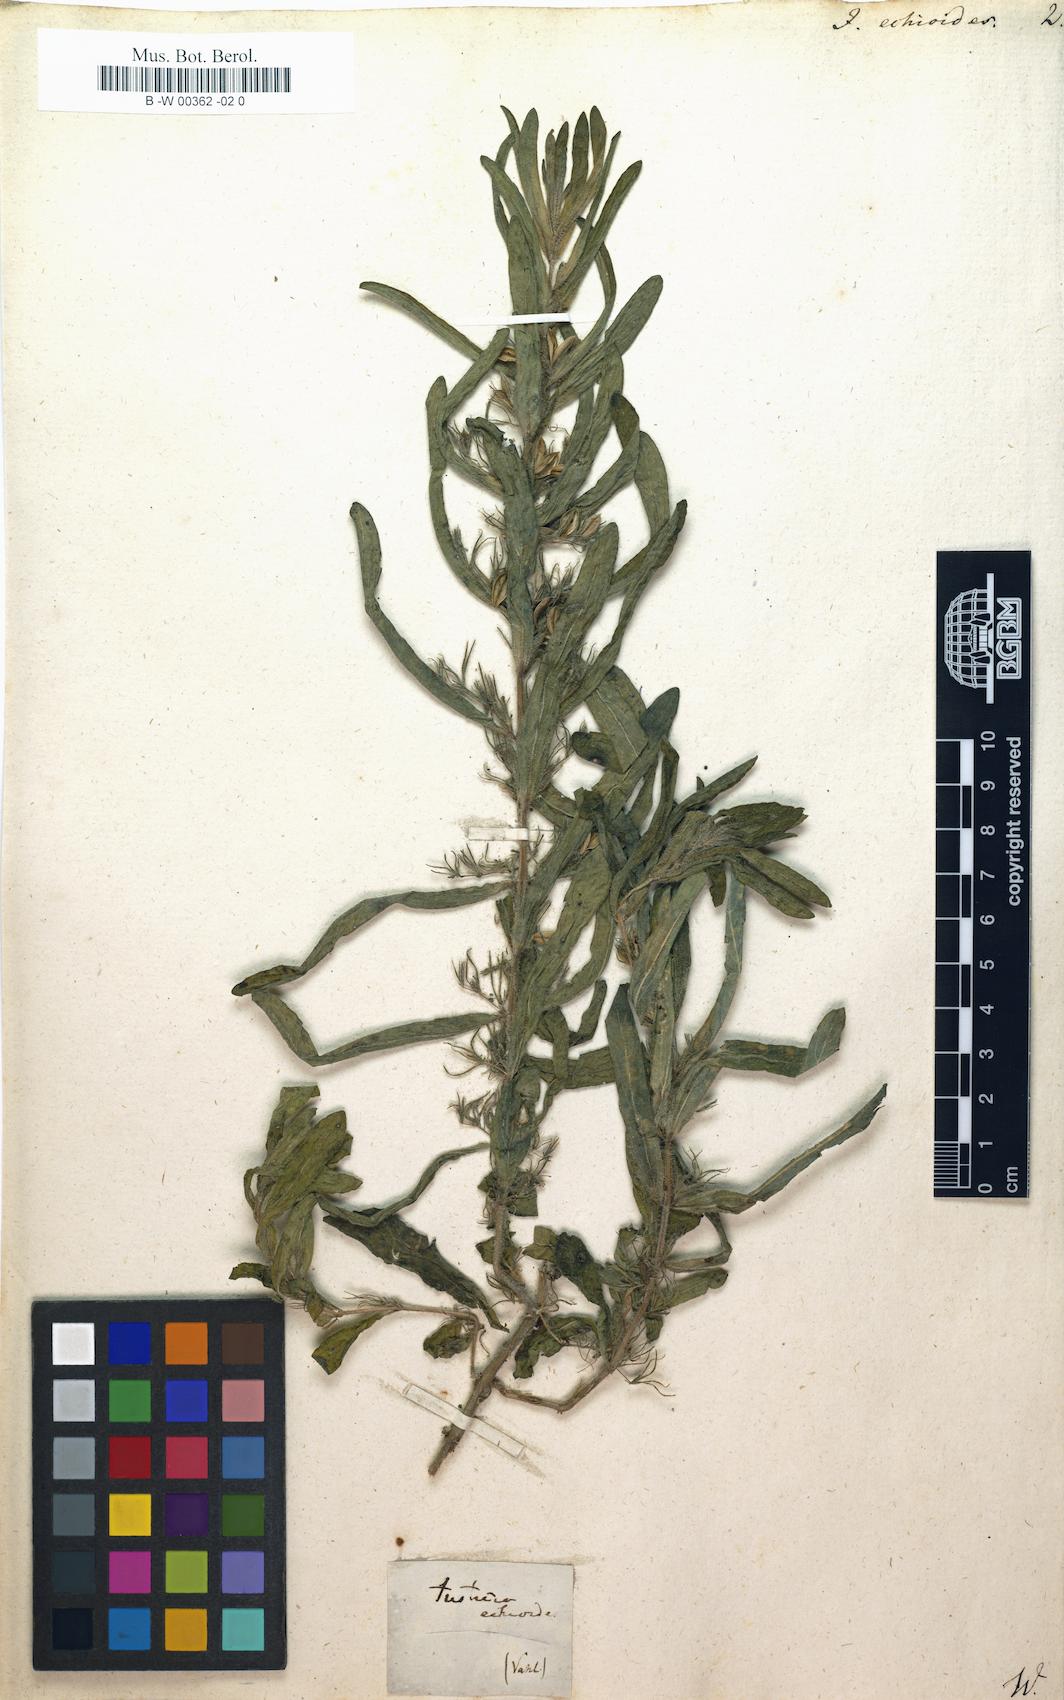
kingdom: Plantae
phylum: Tracheophyta
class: Magnoliopsida
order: Lamiales
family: Acanthaceae
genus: Andrographis
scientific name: Andrographis echioides
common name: False waterwillow
